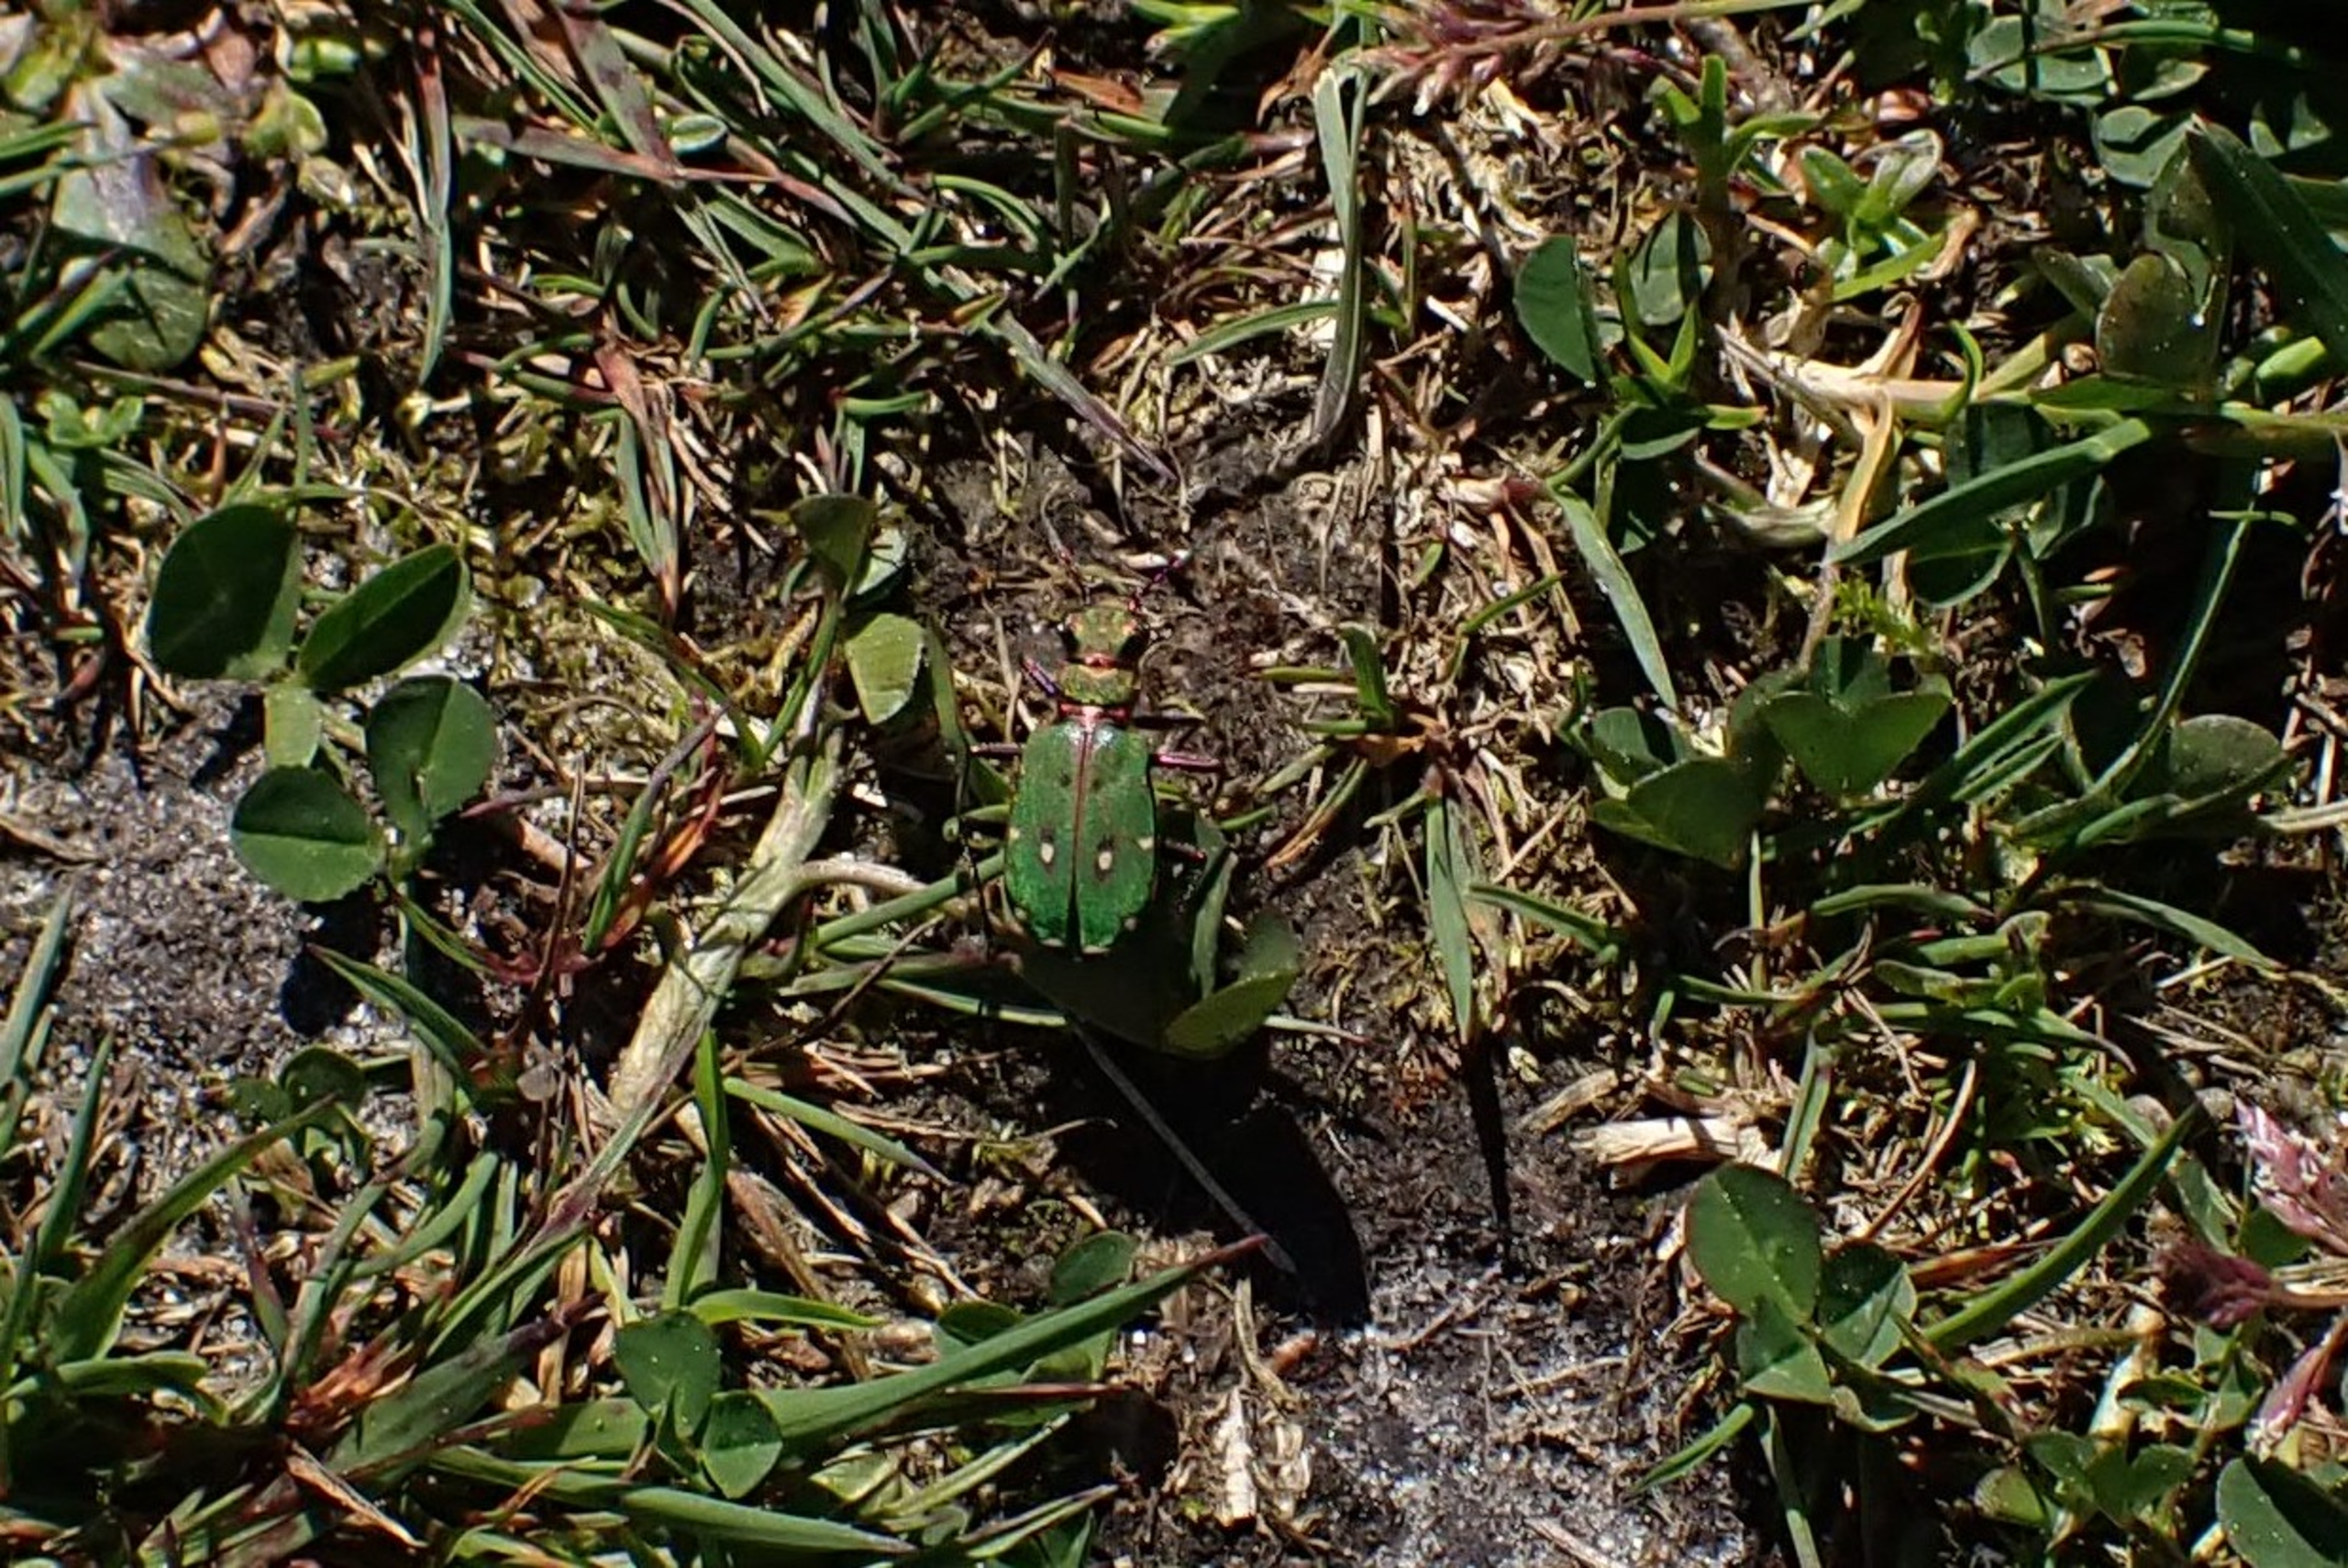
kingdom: Animalia
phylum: Arthropoda
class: Insecta
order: Coleoptera
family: Carabidae
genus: Cicindela
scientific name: Cicindela campestris
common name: Grøn sandspringer
